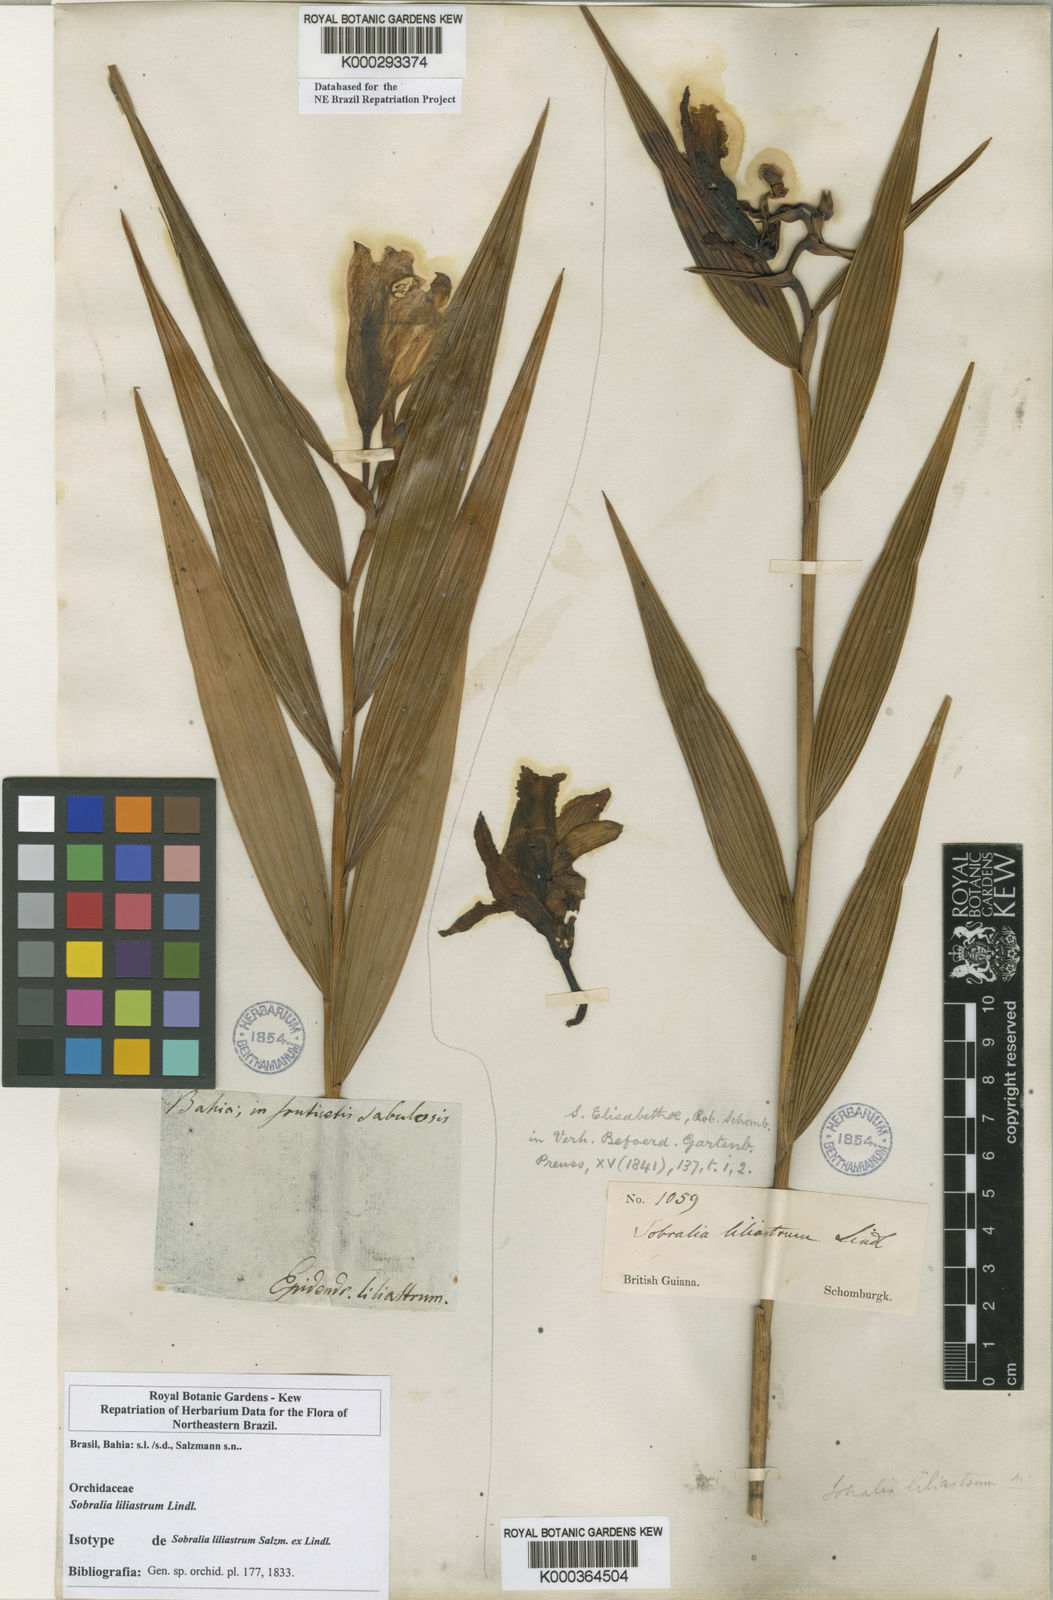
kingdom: Plantae
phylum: Tracheophyta
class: Liliopsida
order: Asparagales
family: Orchidaceae
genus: Sobralia
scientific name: Sobralia liliastrum
